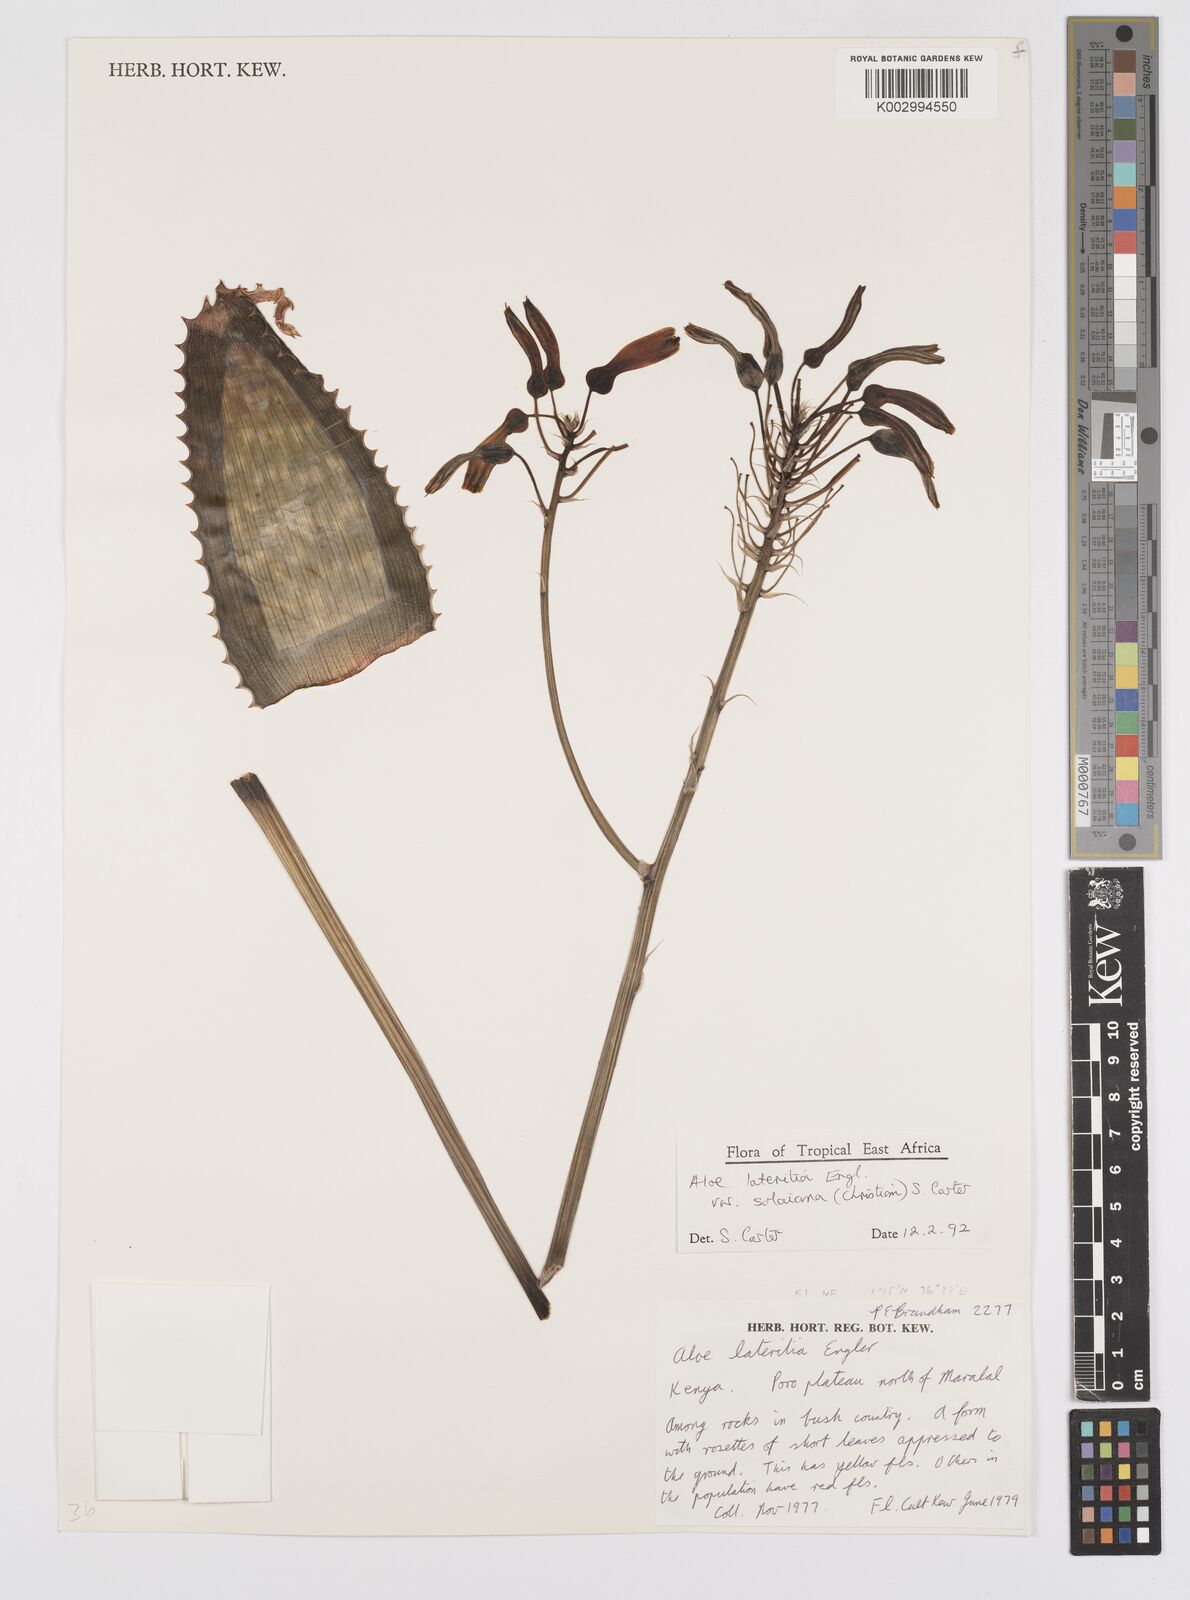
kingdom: Plantae
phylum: Tracheophyta
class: Liliopsida
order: Asparagales
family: Asphodelaceae
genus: Aloe
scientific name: Aloe lateritia
